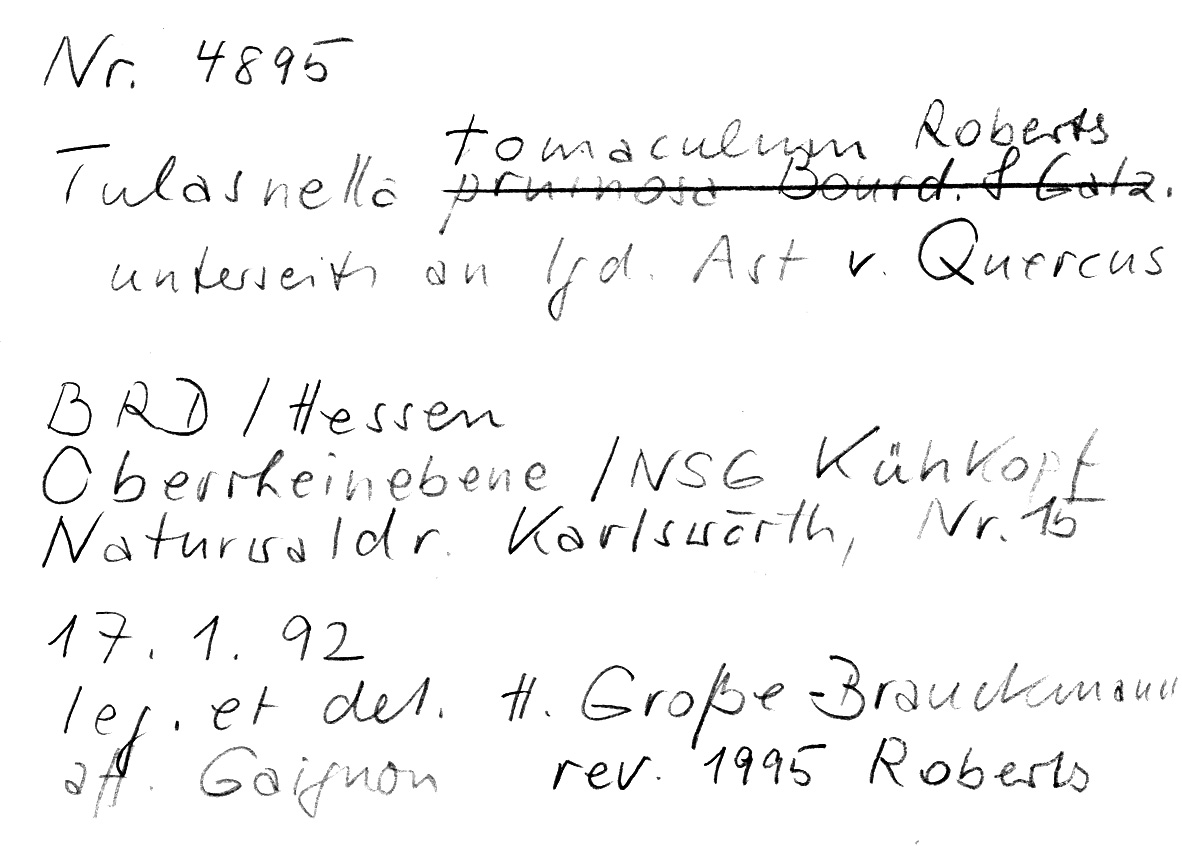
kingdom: Fungi
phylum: Basidiomycota
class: Agaricomycetes
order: Cantharellales
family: Tulasnellaceae
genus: Tulasnella
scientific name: Tulasnella tomaculum
